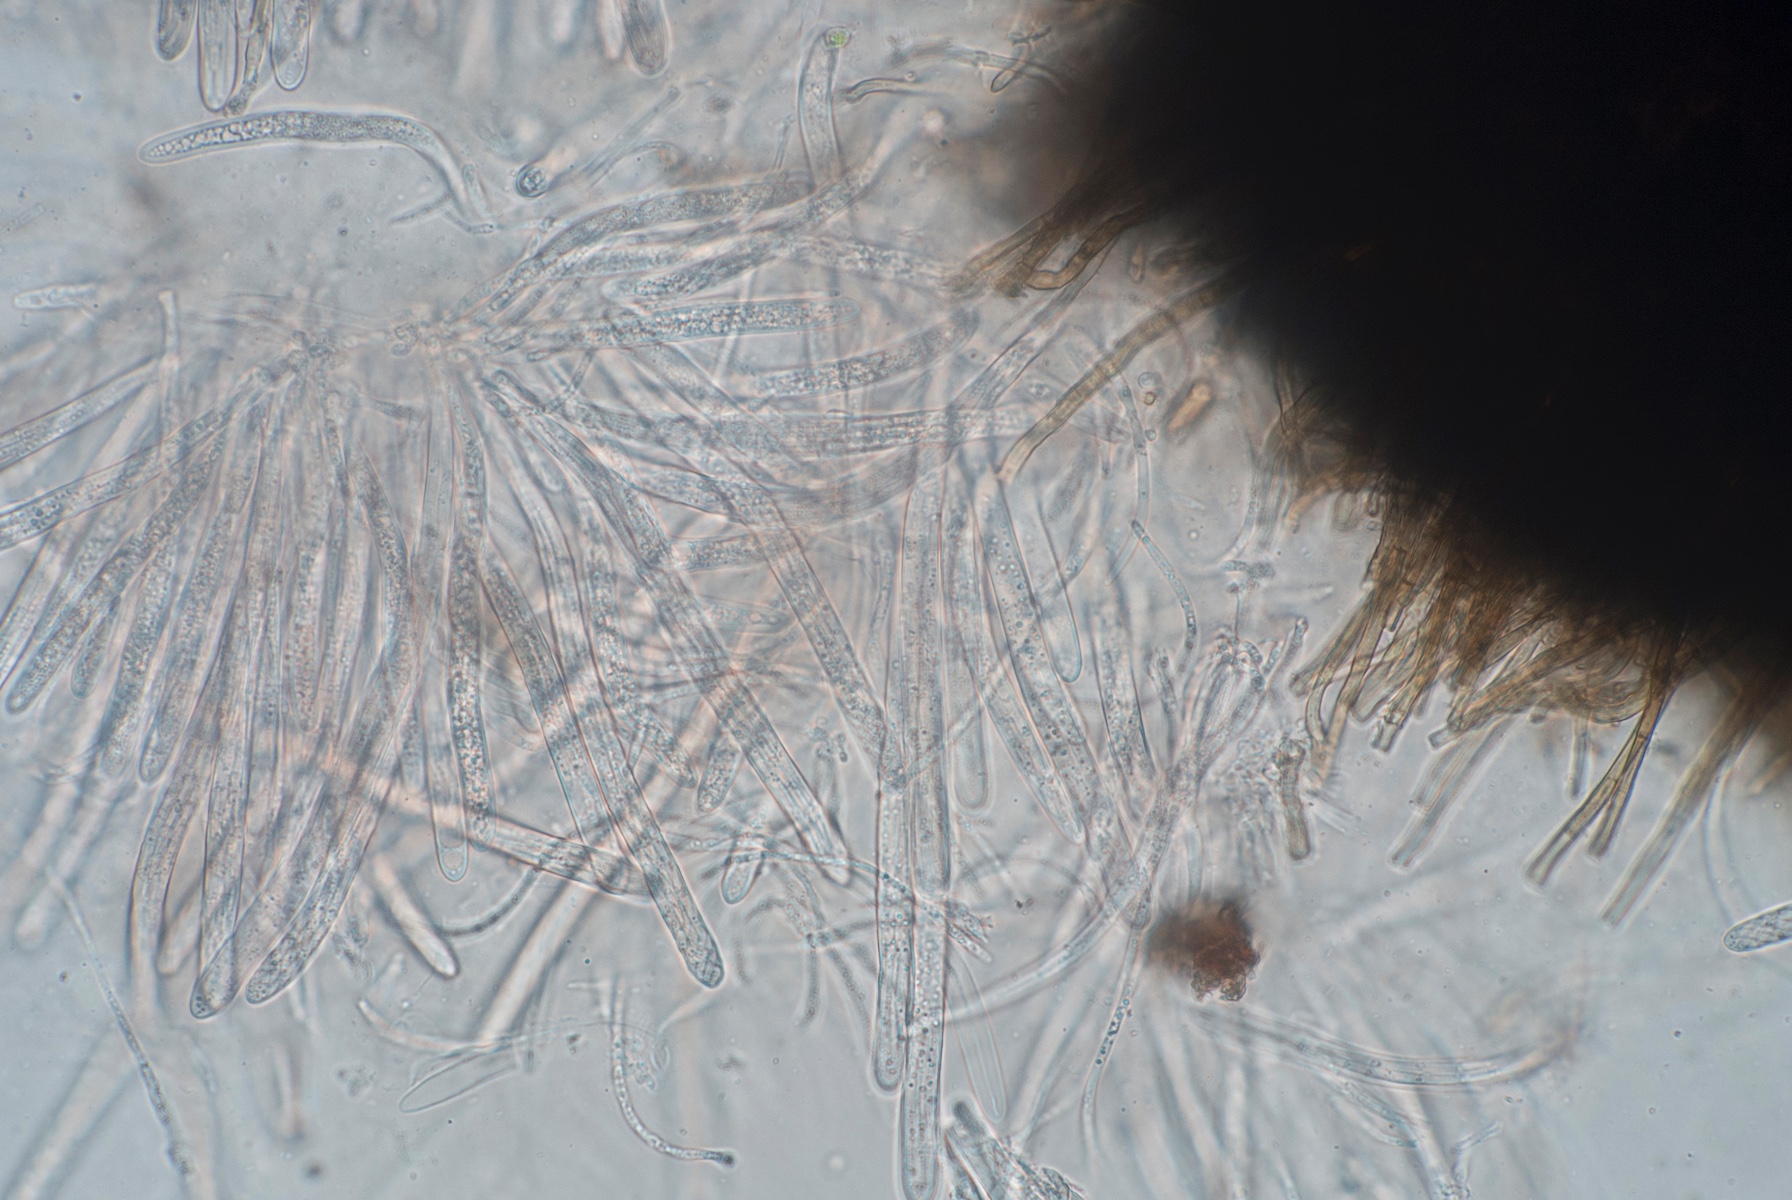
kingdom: Fungi
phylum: Ascomycota
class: Dothideomycetes
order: Pleosporales
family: Phaeosphaeriaceae
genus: Ophiobolus
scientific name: Ophiobolus
